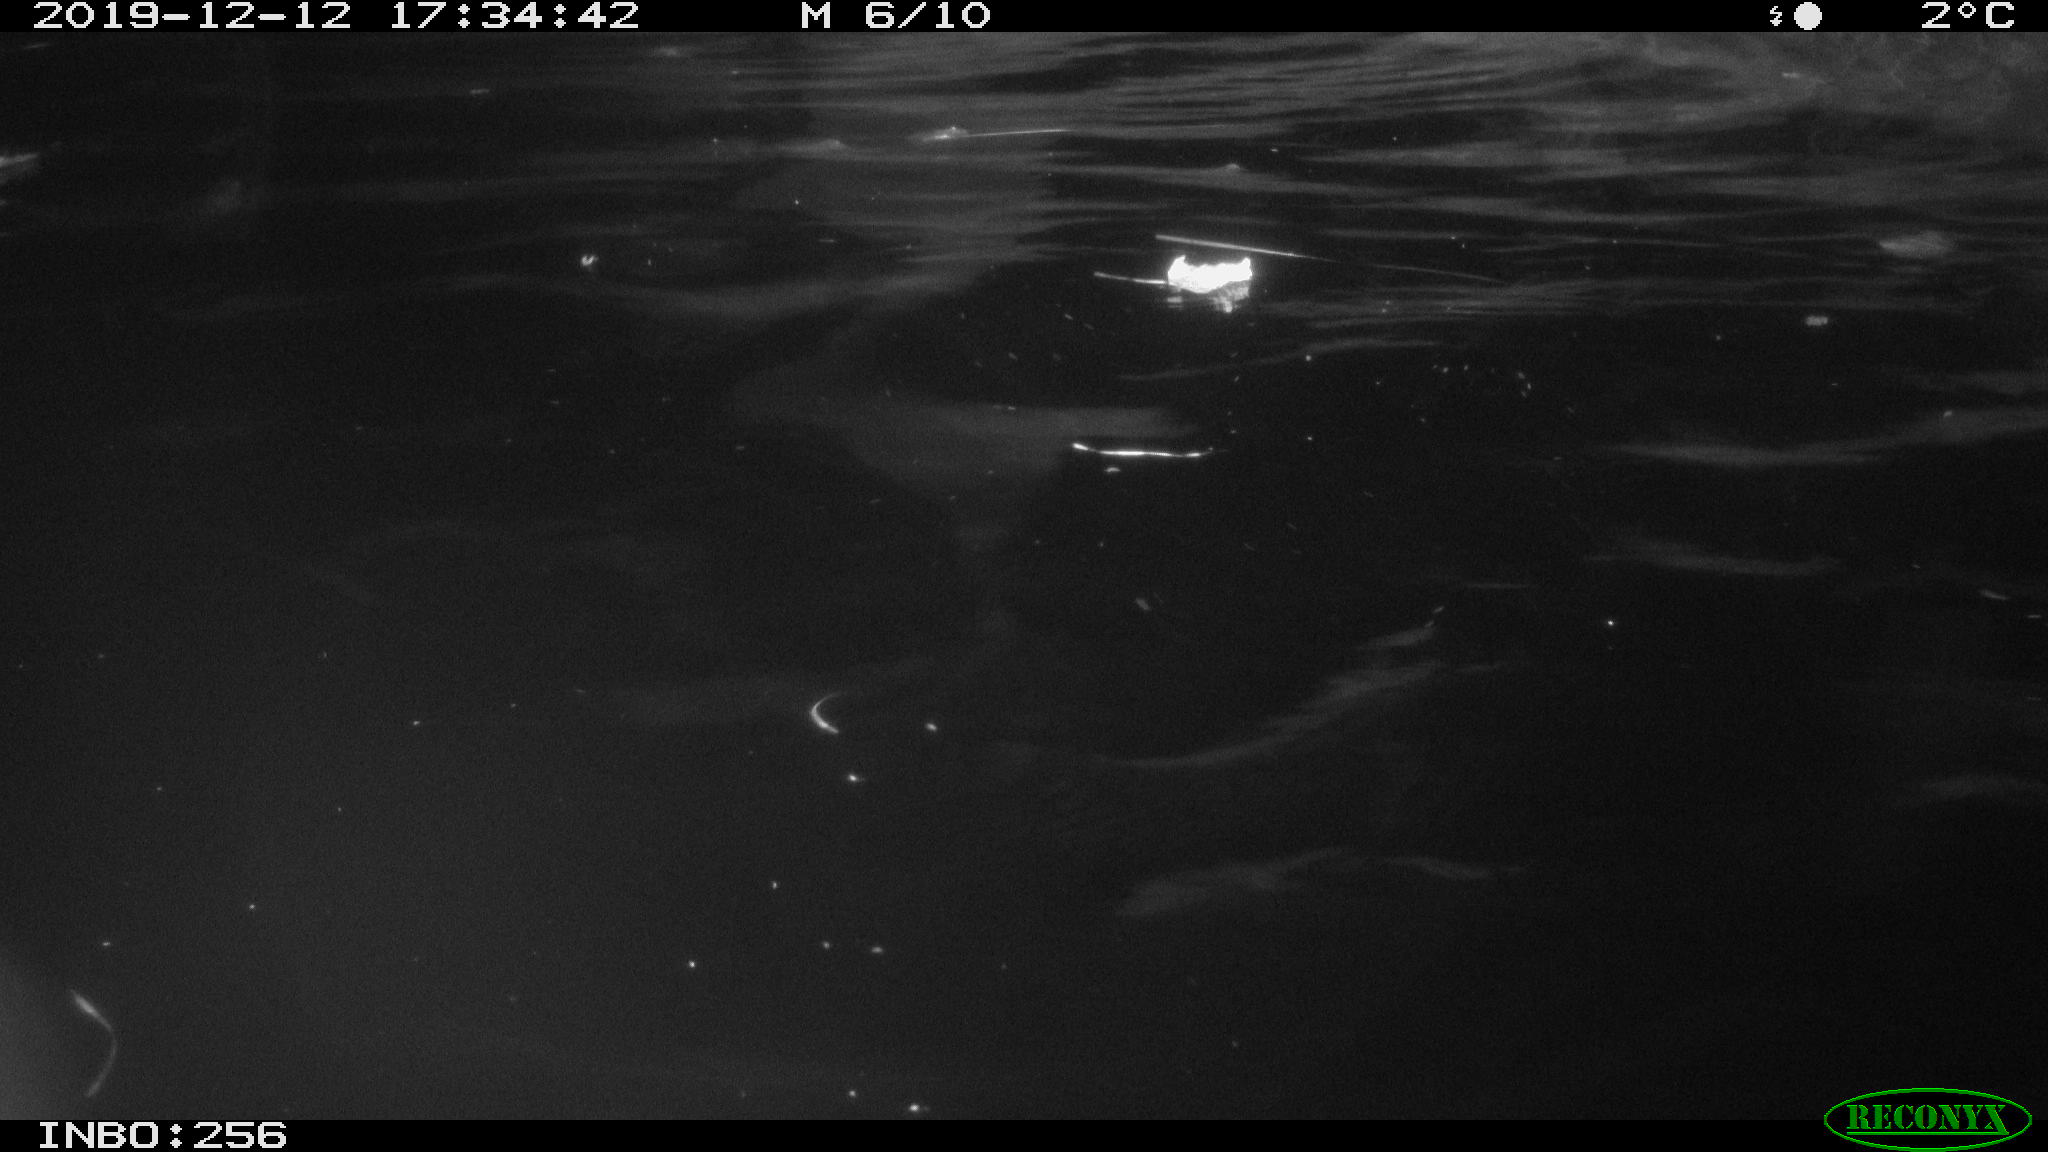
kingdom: Animalia
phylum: Chordata
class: Mammalia
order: Rodentia
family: Cricetidae
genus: Arvicola
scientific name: Arvicola amphibius
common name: European water vole
